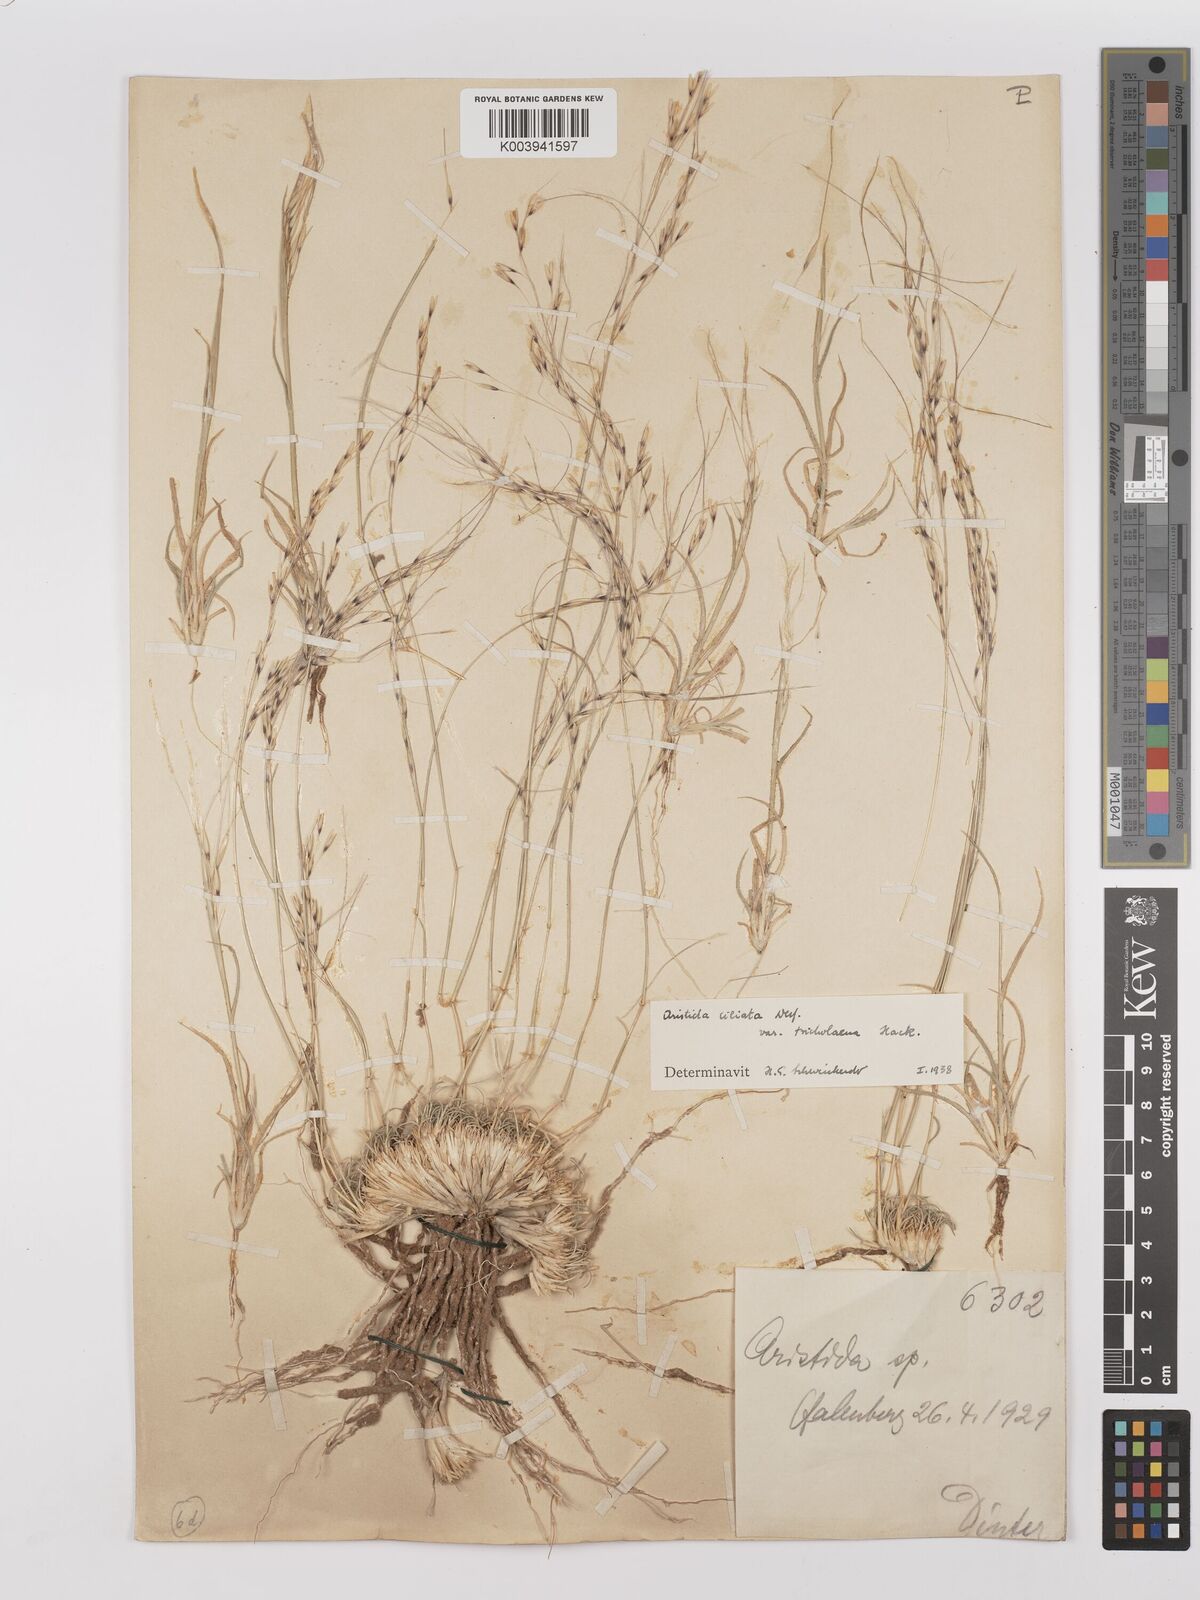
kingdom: Plantae
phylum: Tracheophyta
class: Liliopsida
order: Poales
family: Poaceae
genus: Stipagrostis
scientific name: Stipagrostis ciliata
